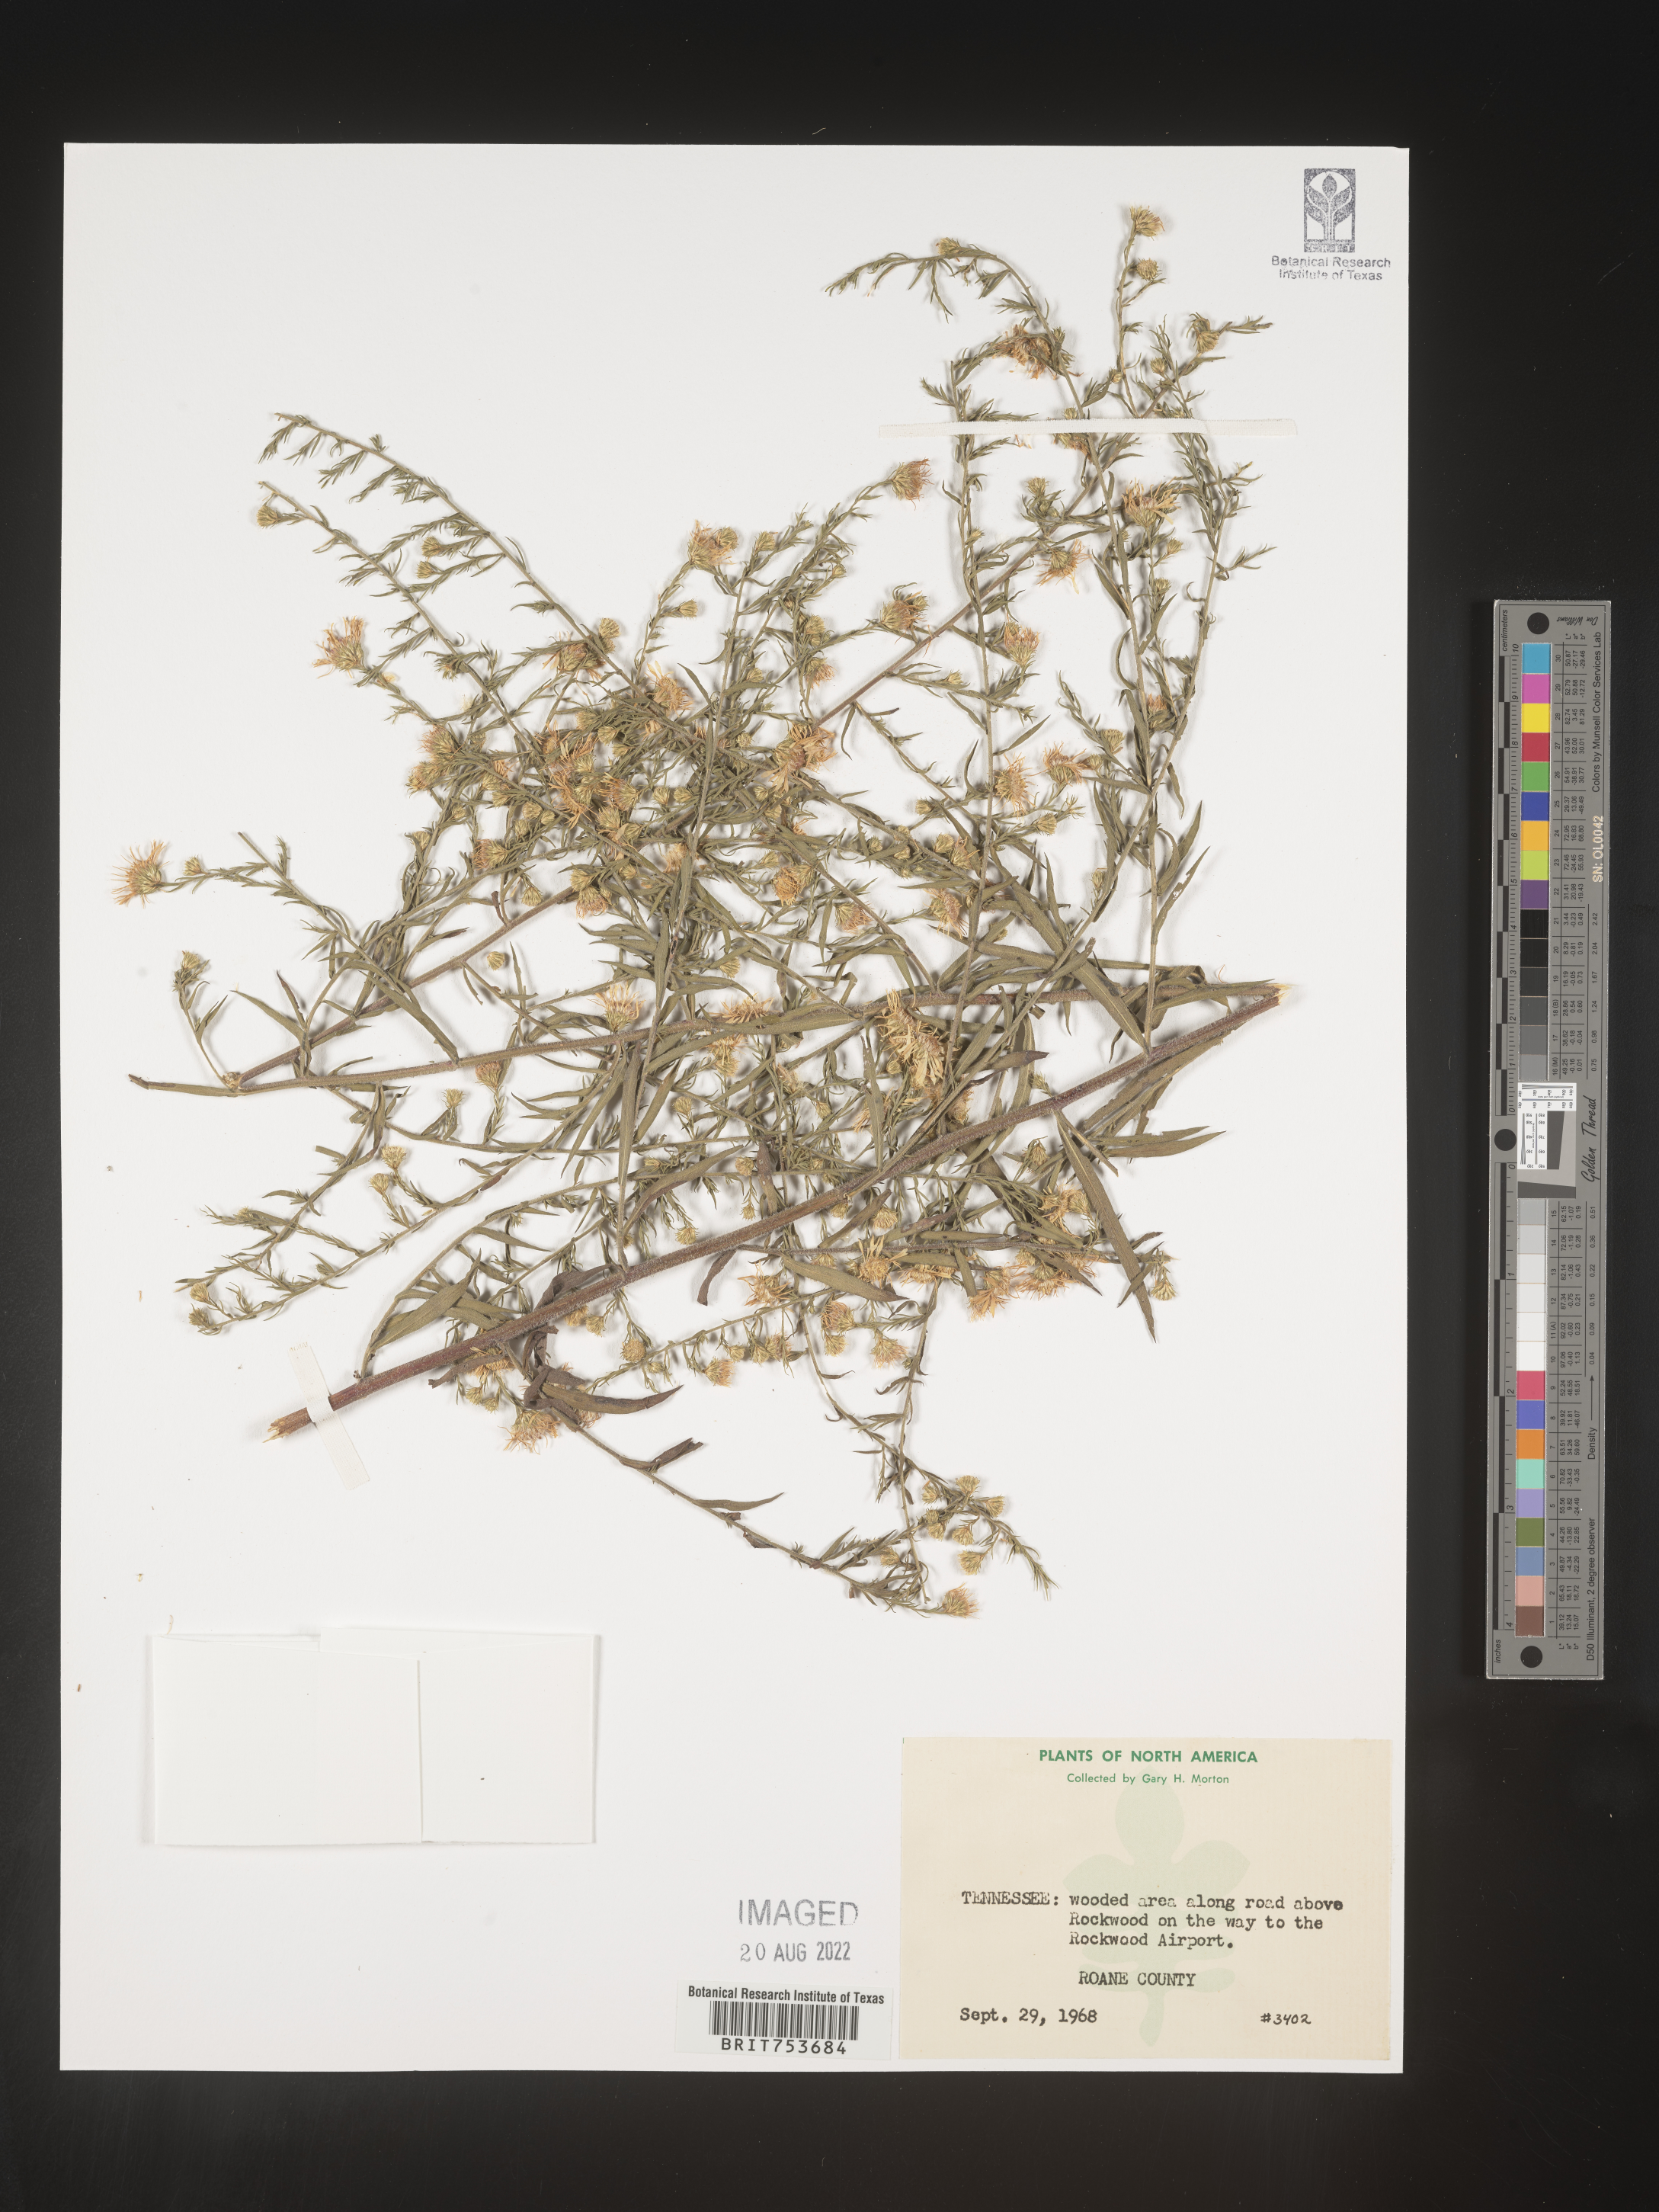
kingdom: Plantae
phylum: Tracheophyta
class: Magnoliopsida
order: Asterales
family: Asteraceae
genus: Symphyotrichum
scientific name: Symphyotrichum pilosum
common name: Awl aster
